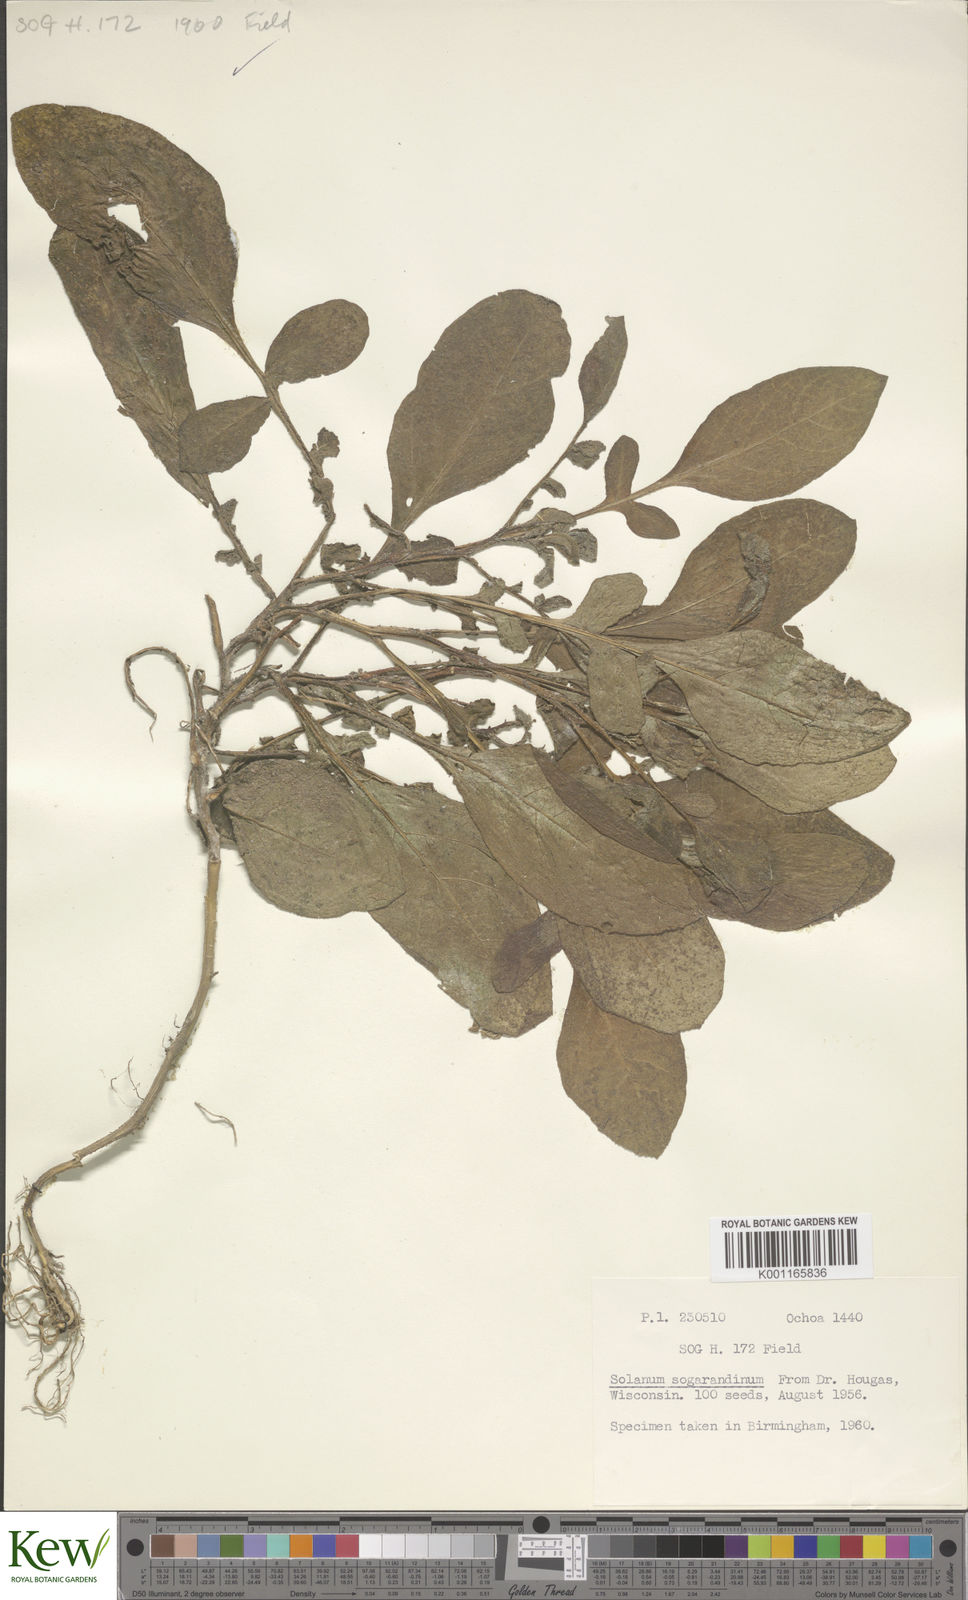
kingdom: Plantae
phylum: Tracheophyta
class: Magnoliopsida
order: Solanales
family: Solanaceae
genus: Solanum
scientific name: Solanum sogarandinum
